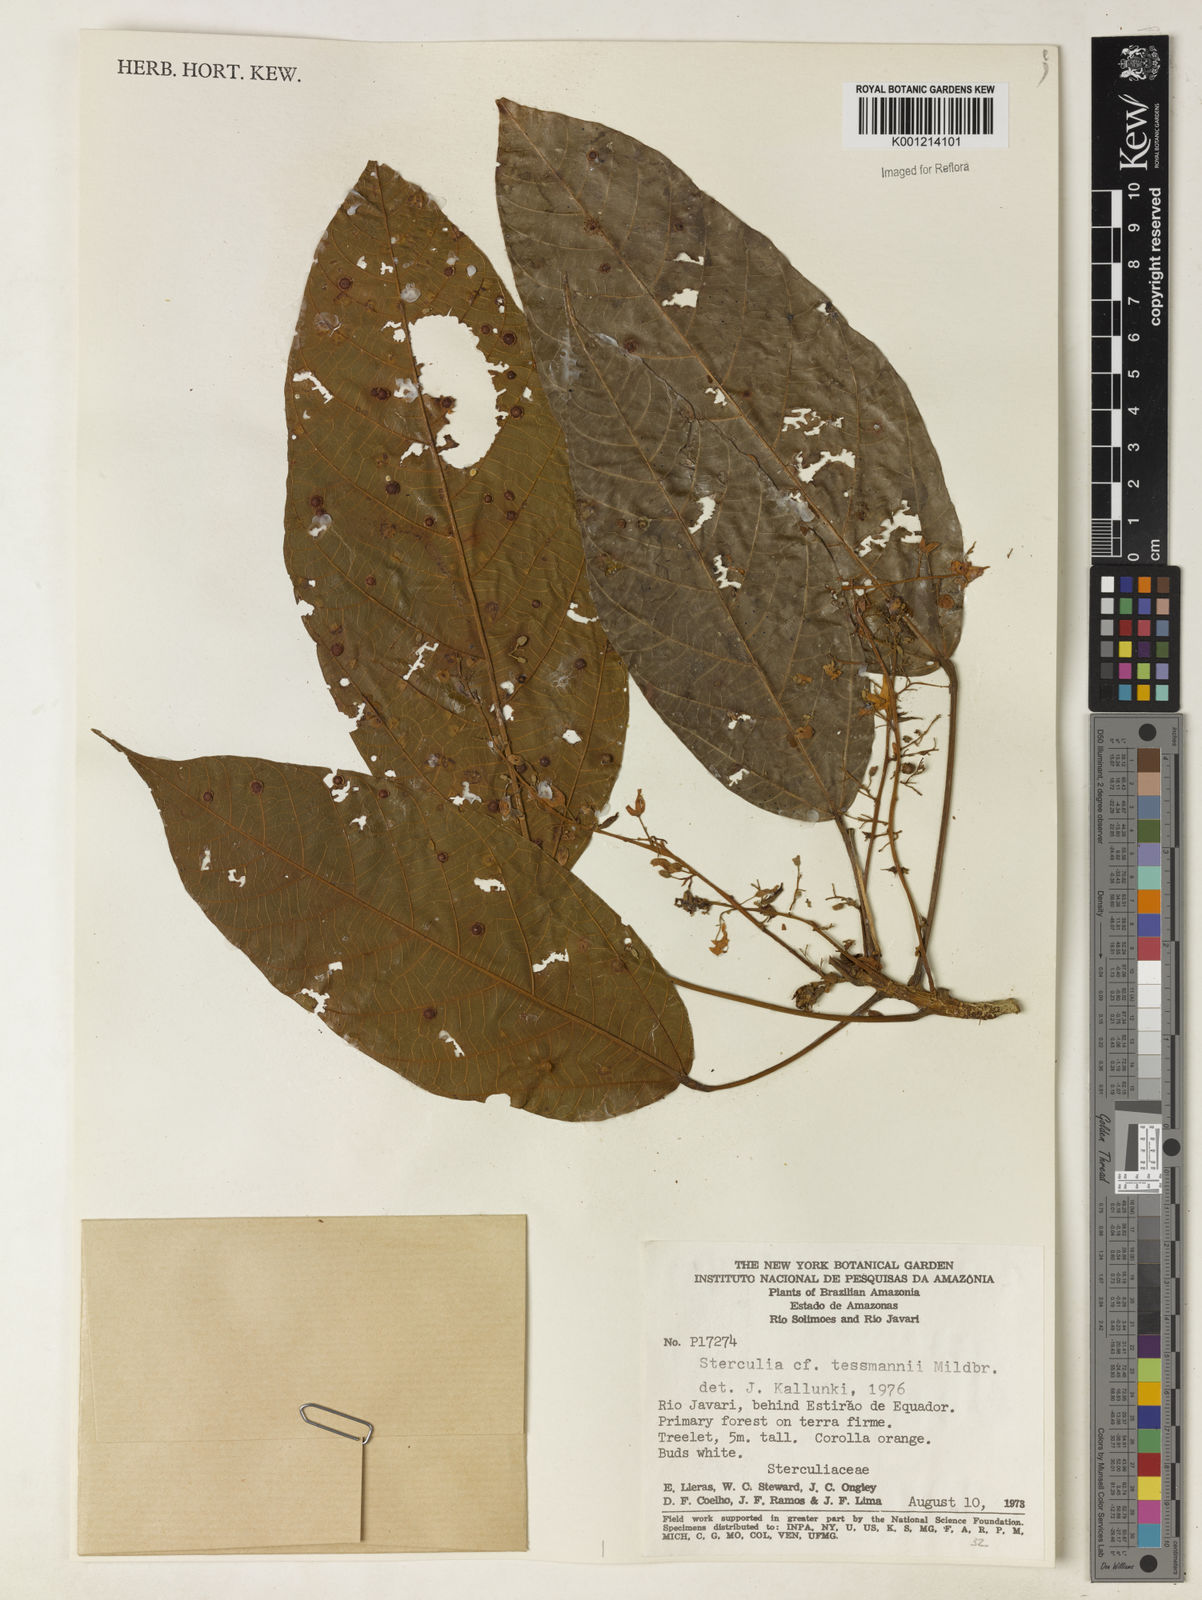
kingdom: Plantae
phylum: Tracheophyta
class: Magnoliopsida
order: Malvales
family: Malvaceae
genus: Sterculia
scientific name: Sterculia tessmannii
